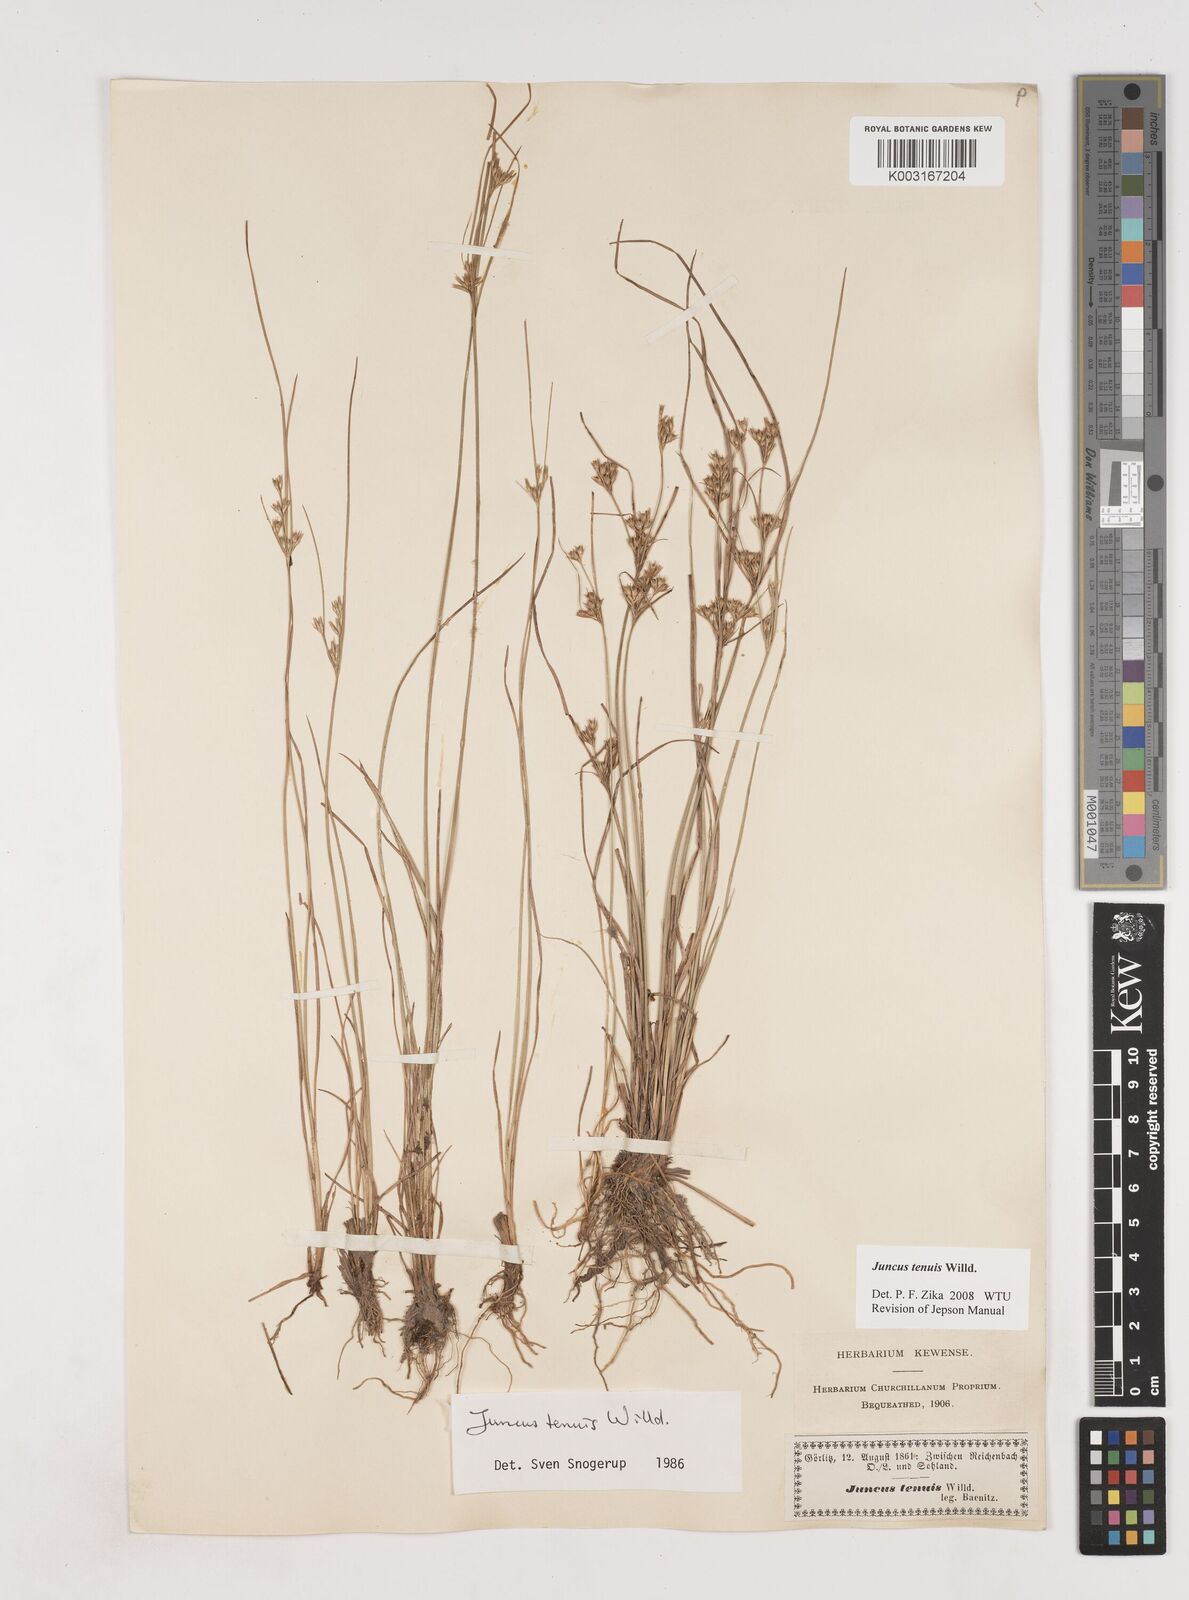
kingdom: Plantae
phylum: Tracheophyta
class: Liliopsida
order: Poales
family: Juncaceae
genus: Juncus
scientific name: Juncus tenuis
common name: Slender rush
